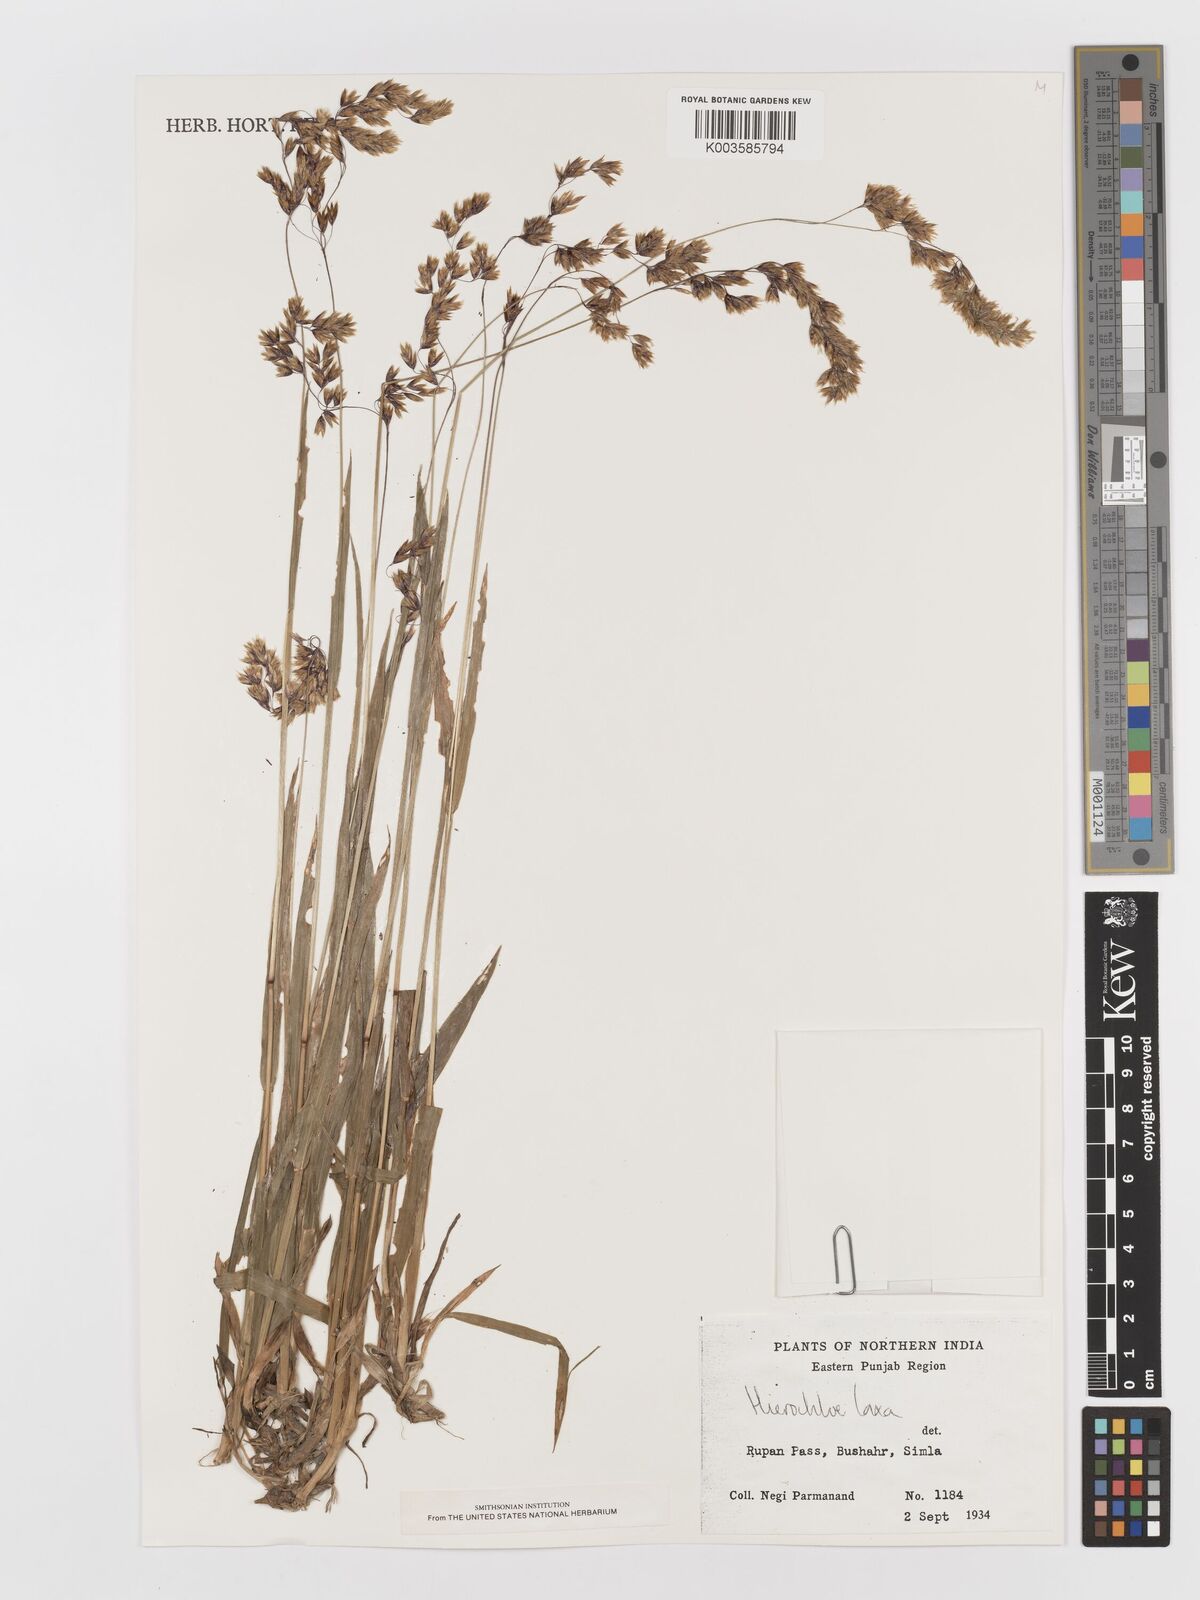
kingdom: Plantae
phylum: Tracheophyta
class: Liliopsida
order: Poales
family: Poaceae
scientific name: Poaceae
